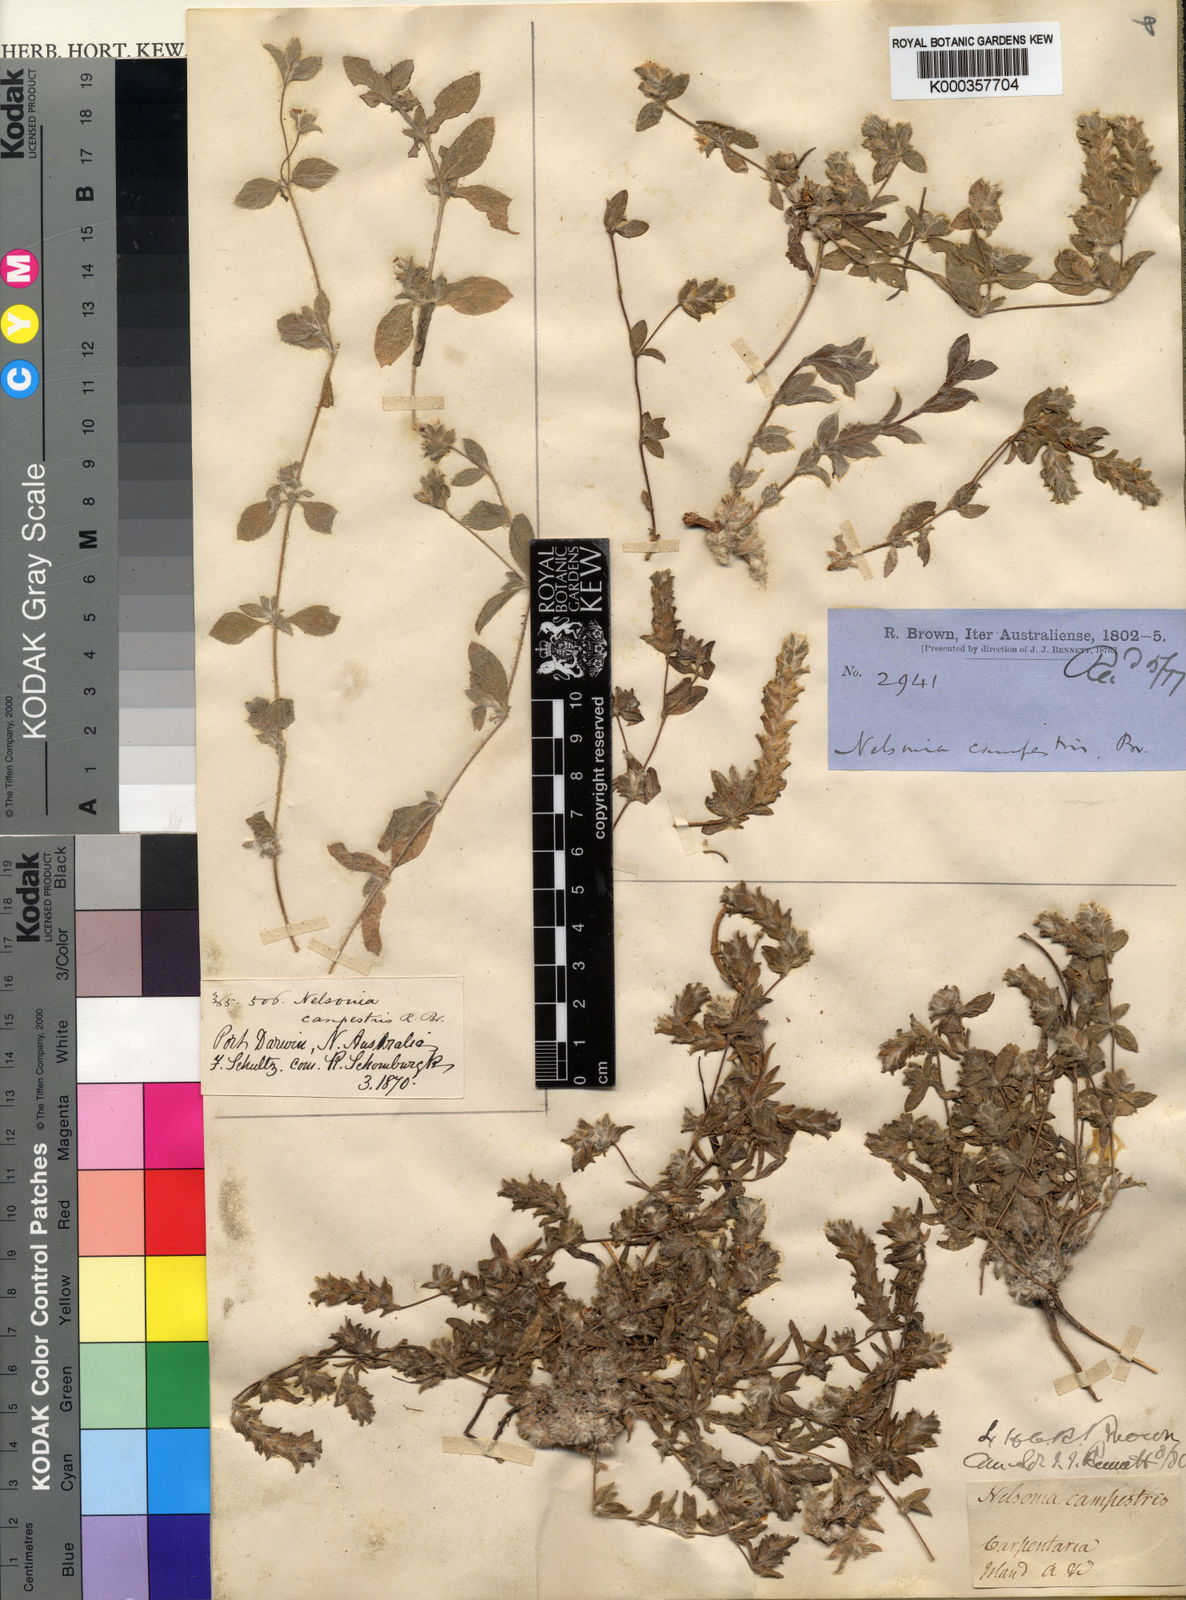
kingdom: Plantae
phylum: Tracheophyta
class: Magnoliopsida
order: Lamiales
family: Acanthaceae
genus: Nelsonia
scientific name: Nelsonia canescens
